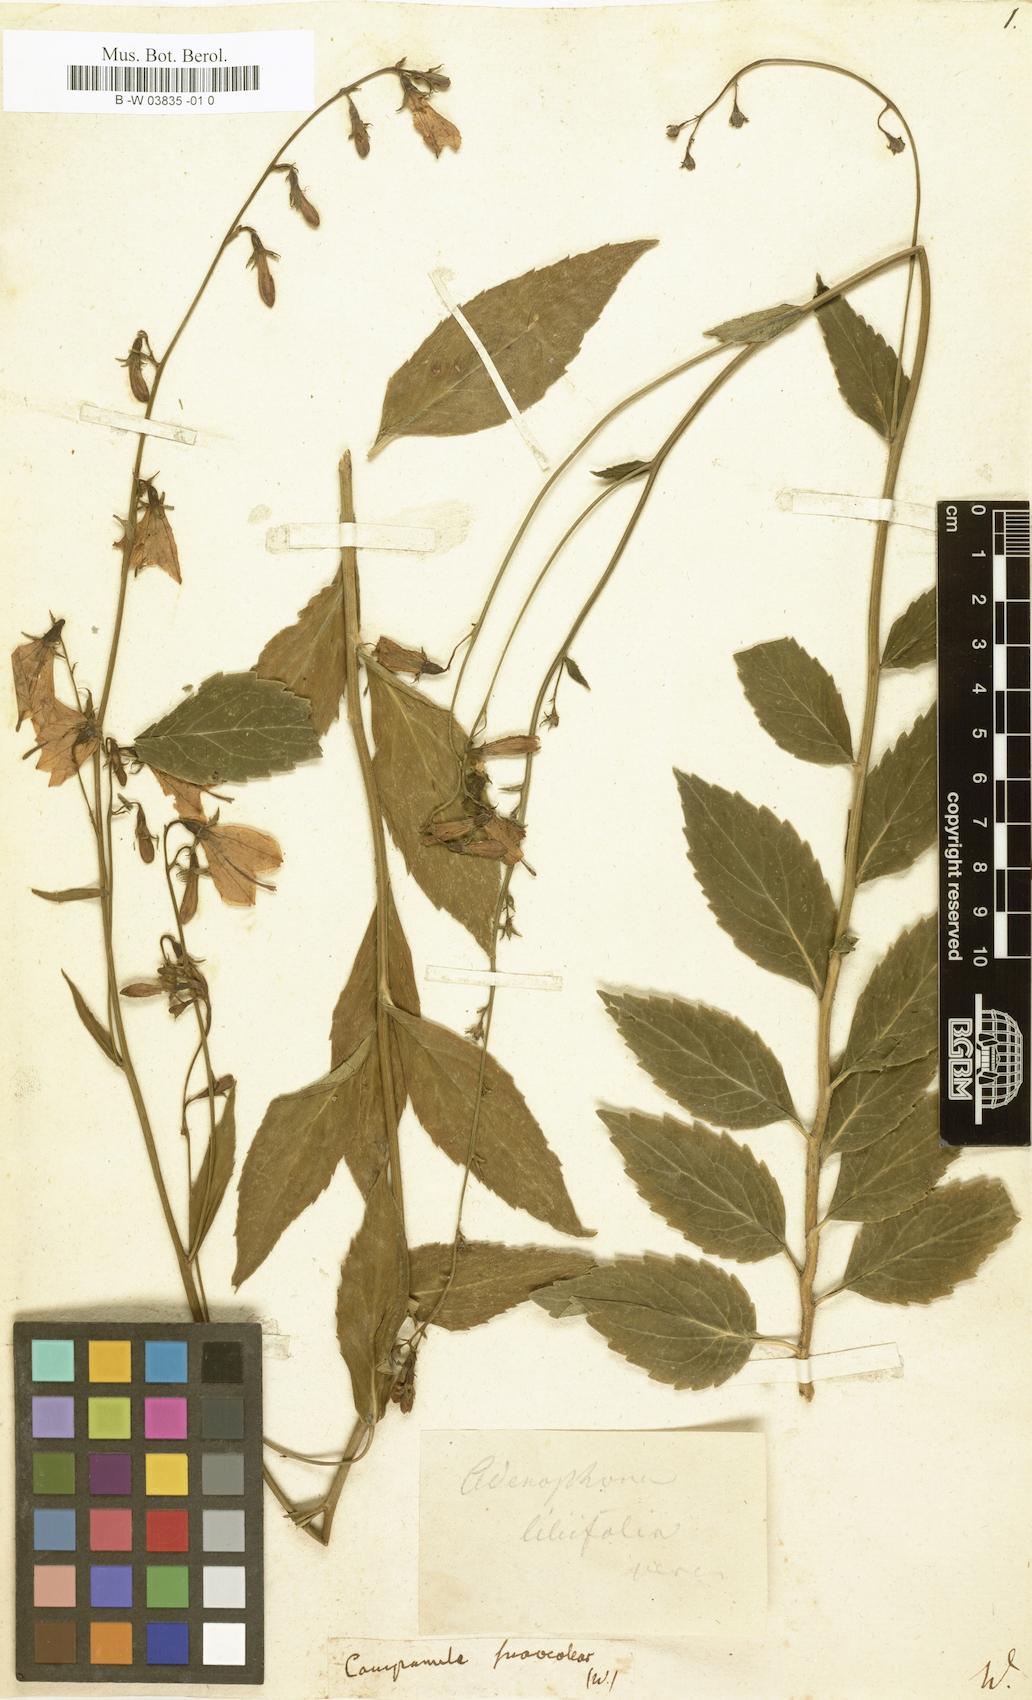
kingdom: Plantae
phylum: Tracheophyta
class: Magnoliopsida
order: Asterales
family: Campanulaceae
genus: Adenophora
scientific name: Adenophora liliifolia
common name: Lilyleaf ladybells
